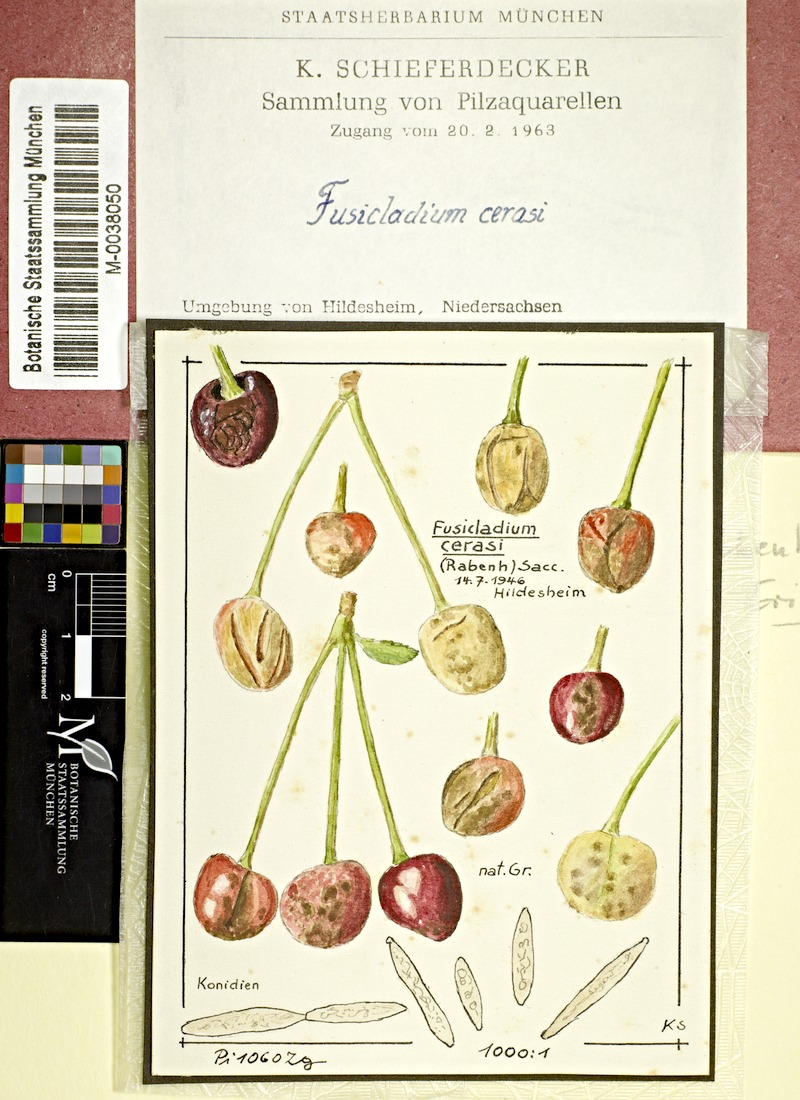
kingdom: Fungi
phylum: Ascomycota
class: Dothideomycetes
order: Venturiales
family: Venturiaceae
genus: Venturia
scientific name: Venturia cerasi
